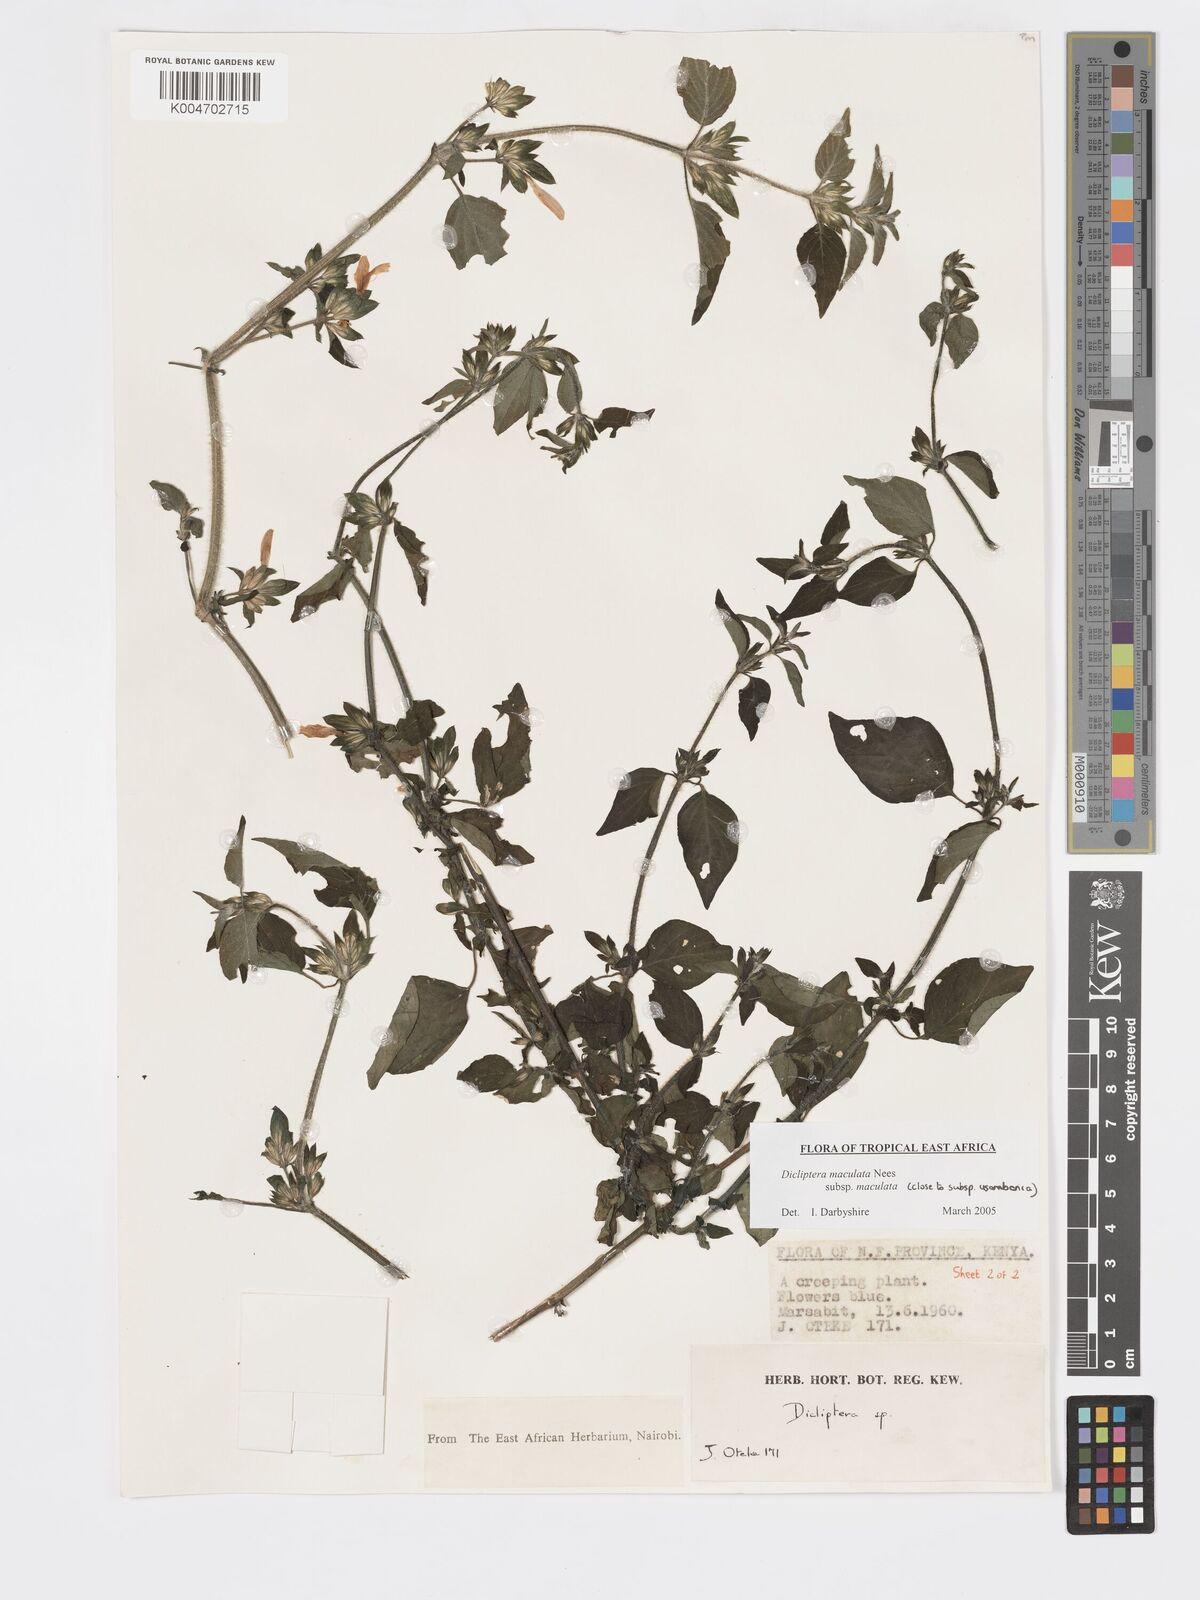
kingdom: Plantae
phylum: Tracheophyta
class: Magnoliopsida
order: Lamiales
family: Acanthaceae
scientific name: Acanthaceae
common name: Acanthaceae
